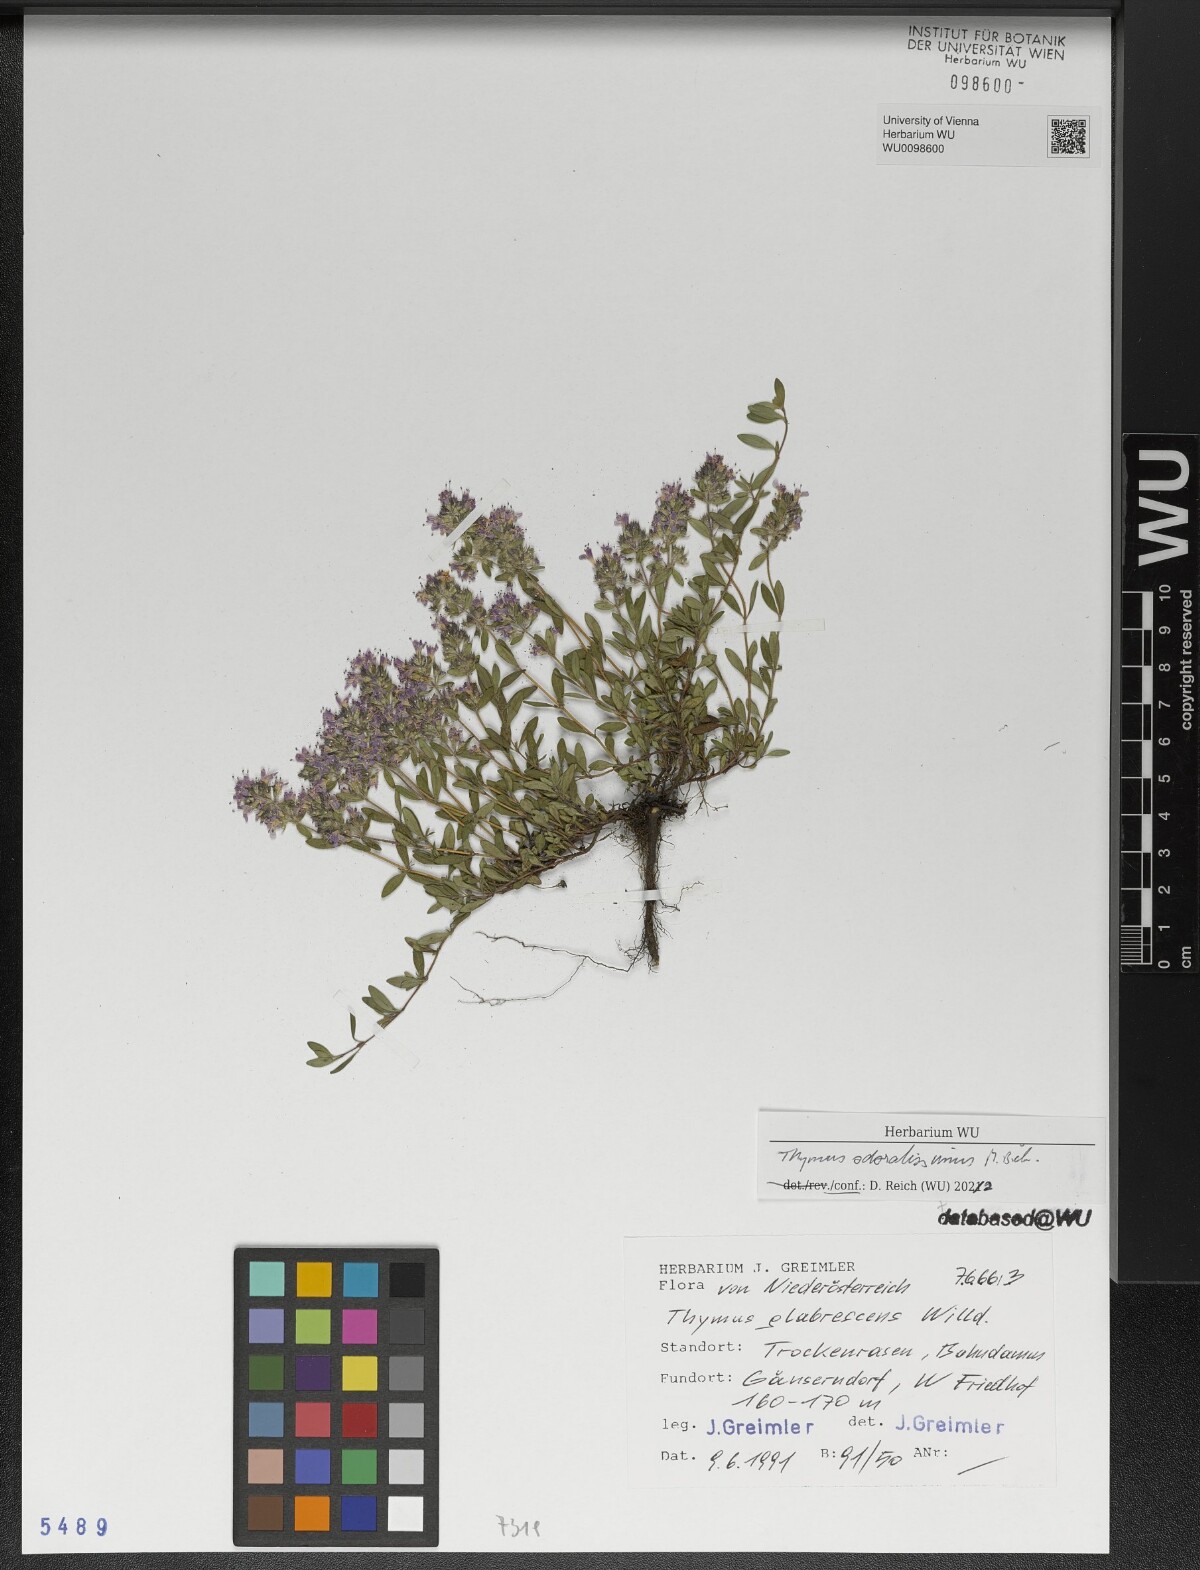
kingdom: Plantae
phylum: Tracheophyta
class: Magnoliopsida
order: Lamiales
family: Lamiaceae
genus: Thymus
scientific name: Thymus odoratissimus
